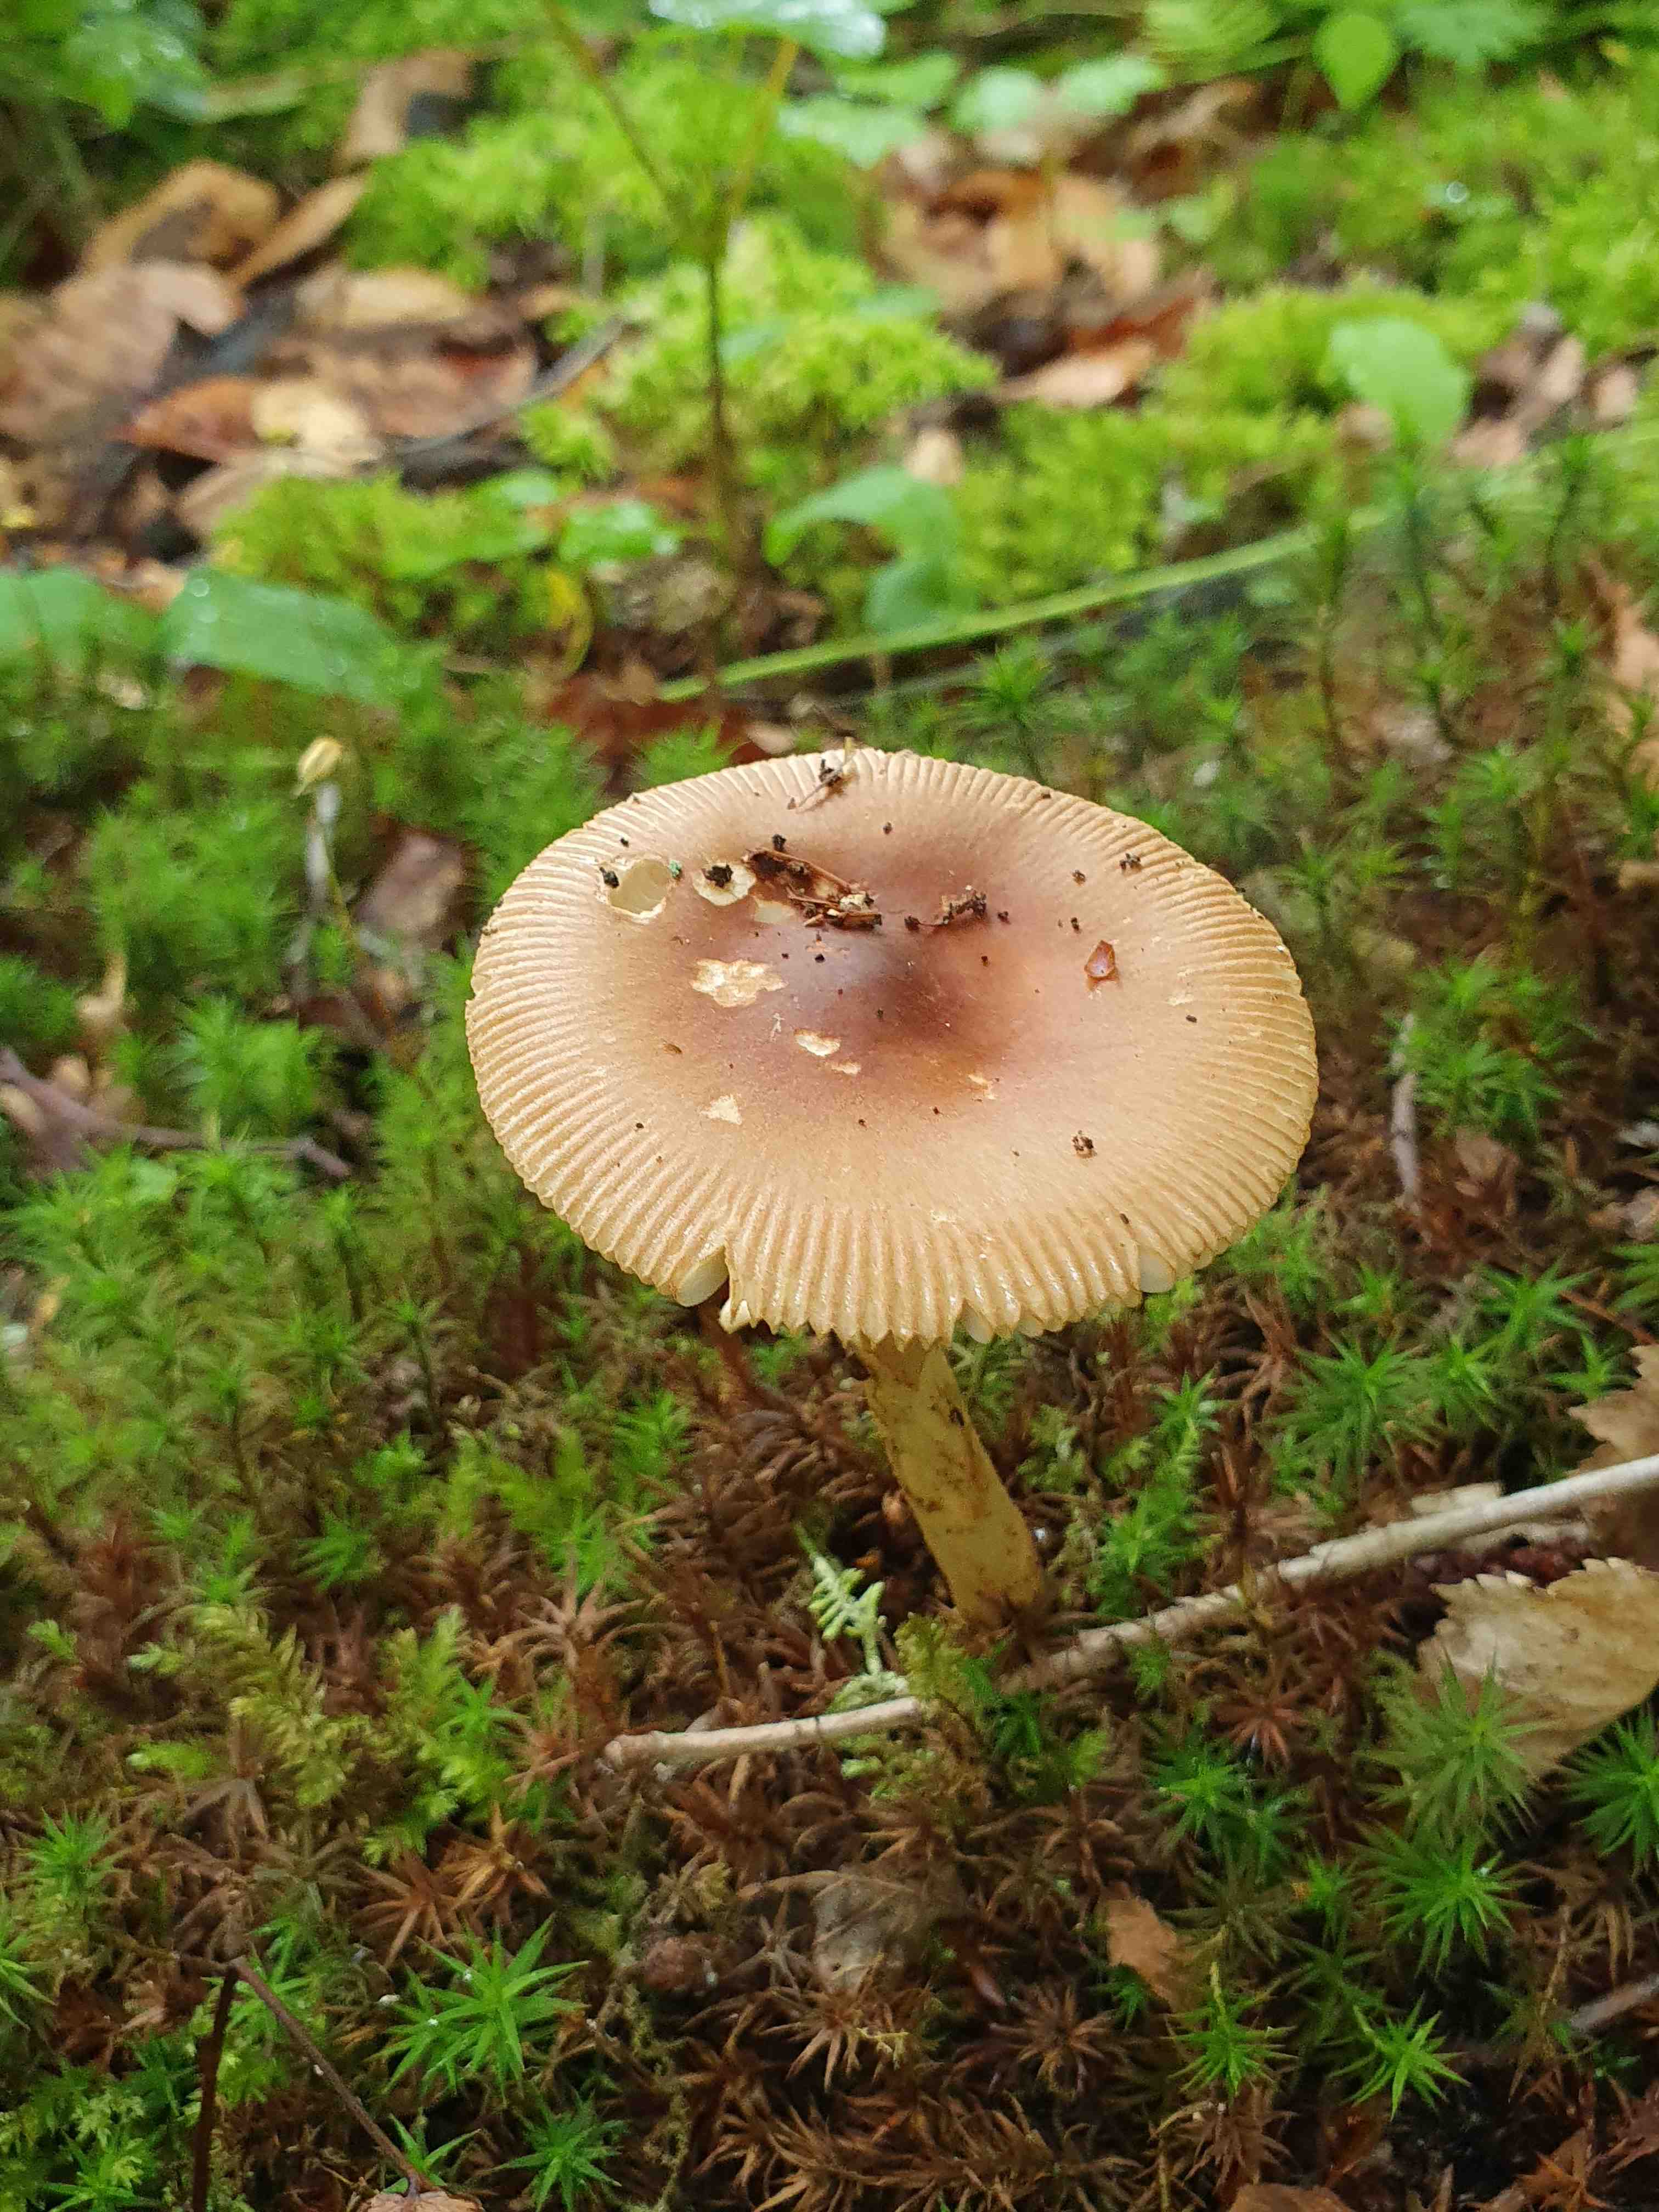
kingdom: Fungi
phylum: Basidiomycota
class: Agaricomycetes
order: Agaricales
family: Amanitaceae
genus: Amanita
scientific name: Amanita fulva
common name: brun kam-fluesvamp
